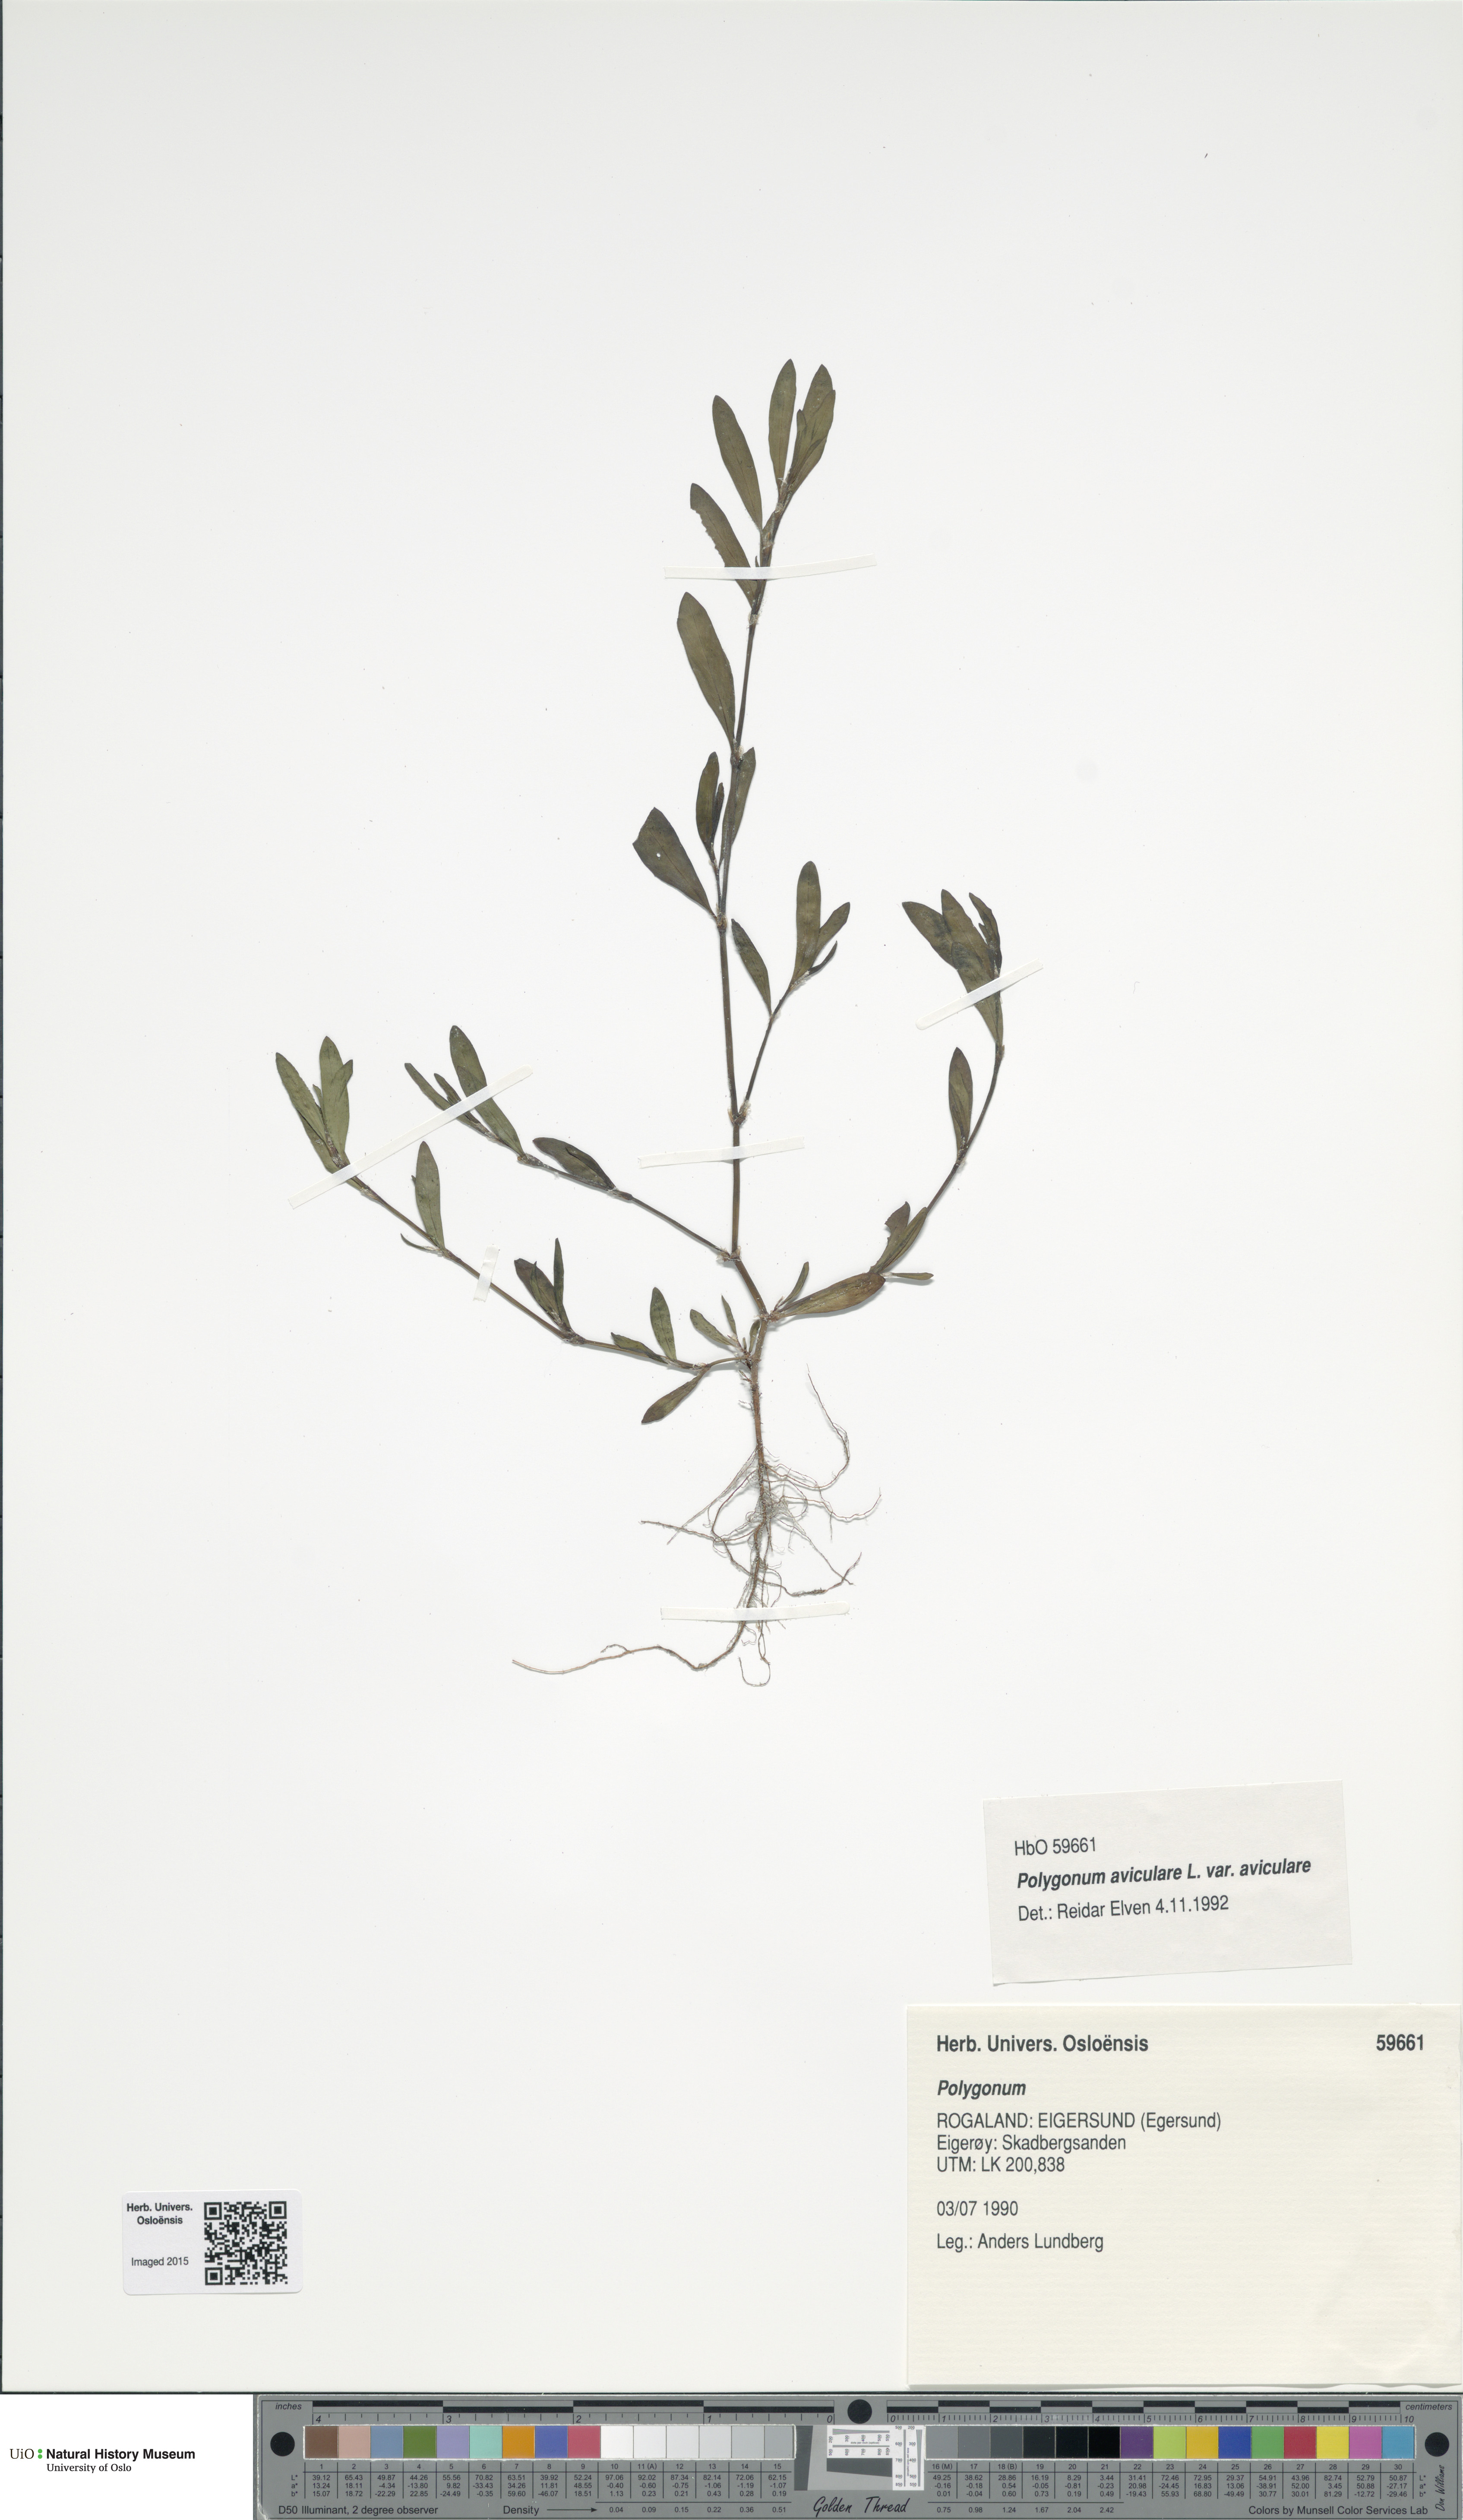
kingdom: Plantae
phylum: Tracheophyta
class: Magnoliopsida
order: Caryophyllales
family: Polygonaceae
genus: Polygonum
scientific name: Polygonum aviculare
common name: Prostrate knotweed
